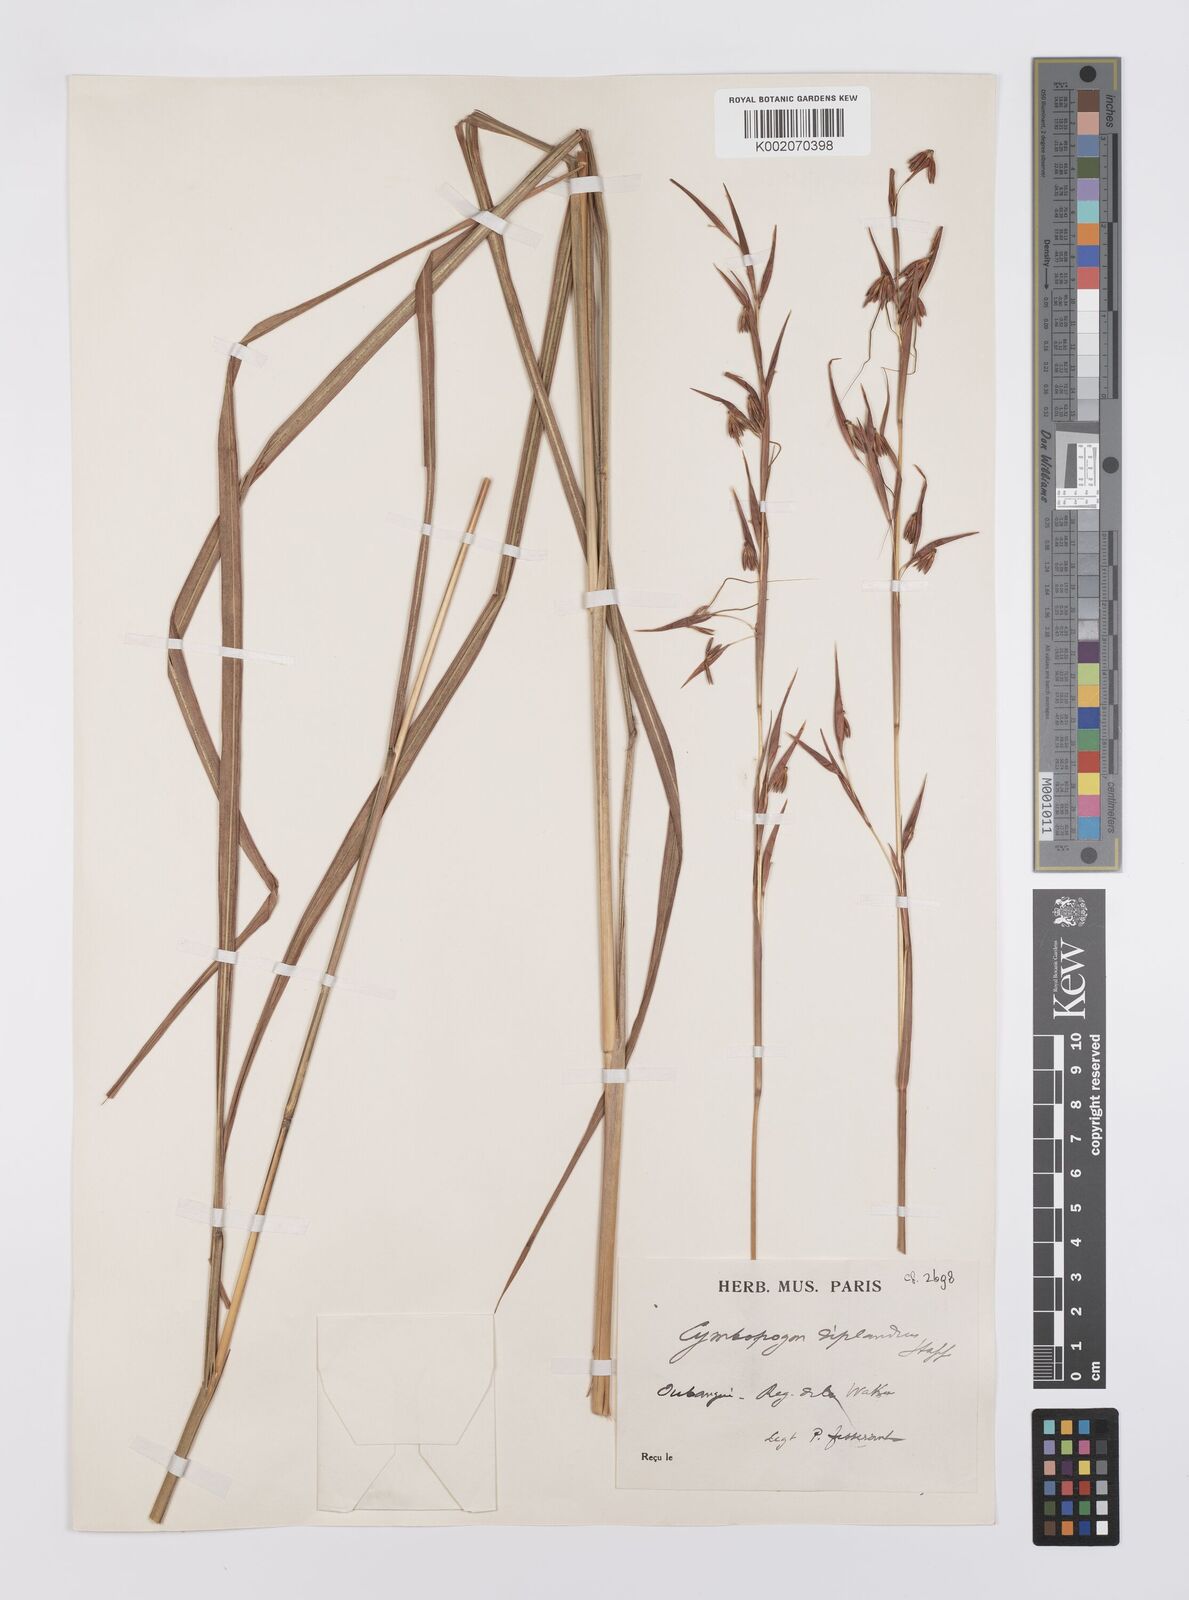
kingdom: Plantae
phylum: Tracheophyta
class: Liliopsida
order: Poales
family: Poaceae
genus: Hyparrhenia
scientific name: Hyparrhenia diplandra
